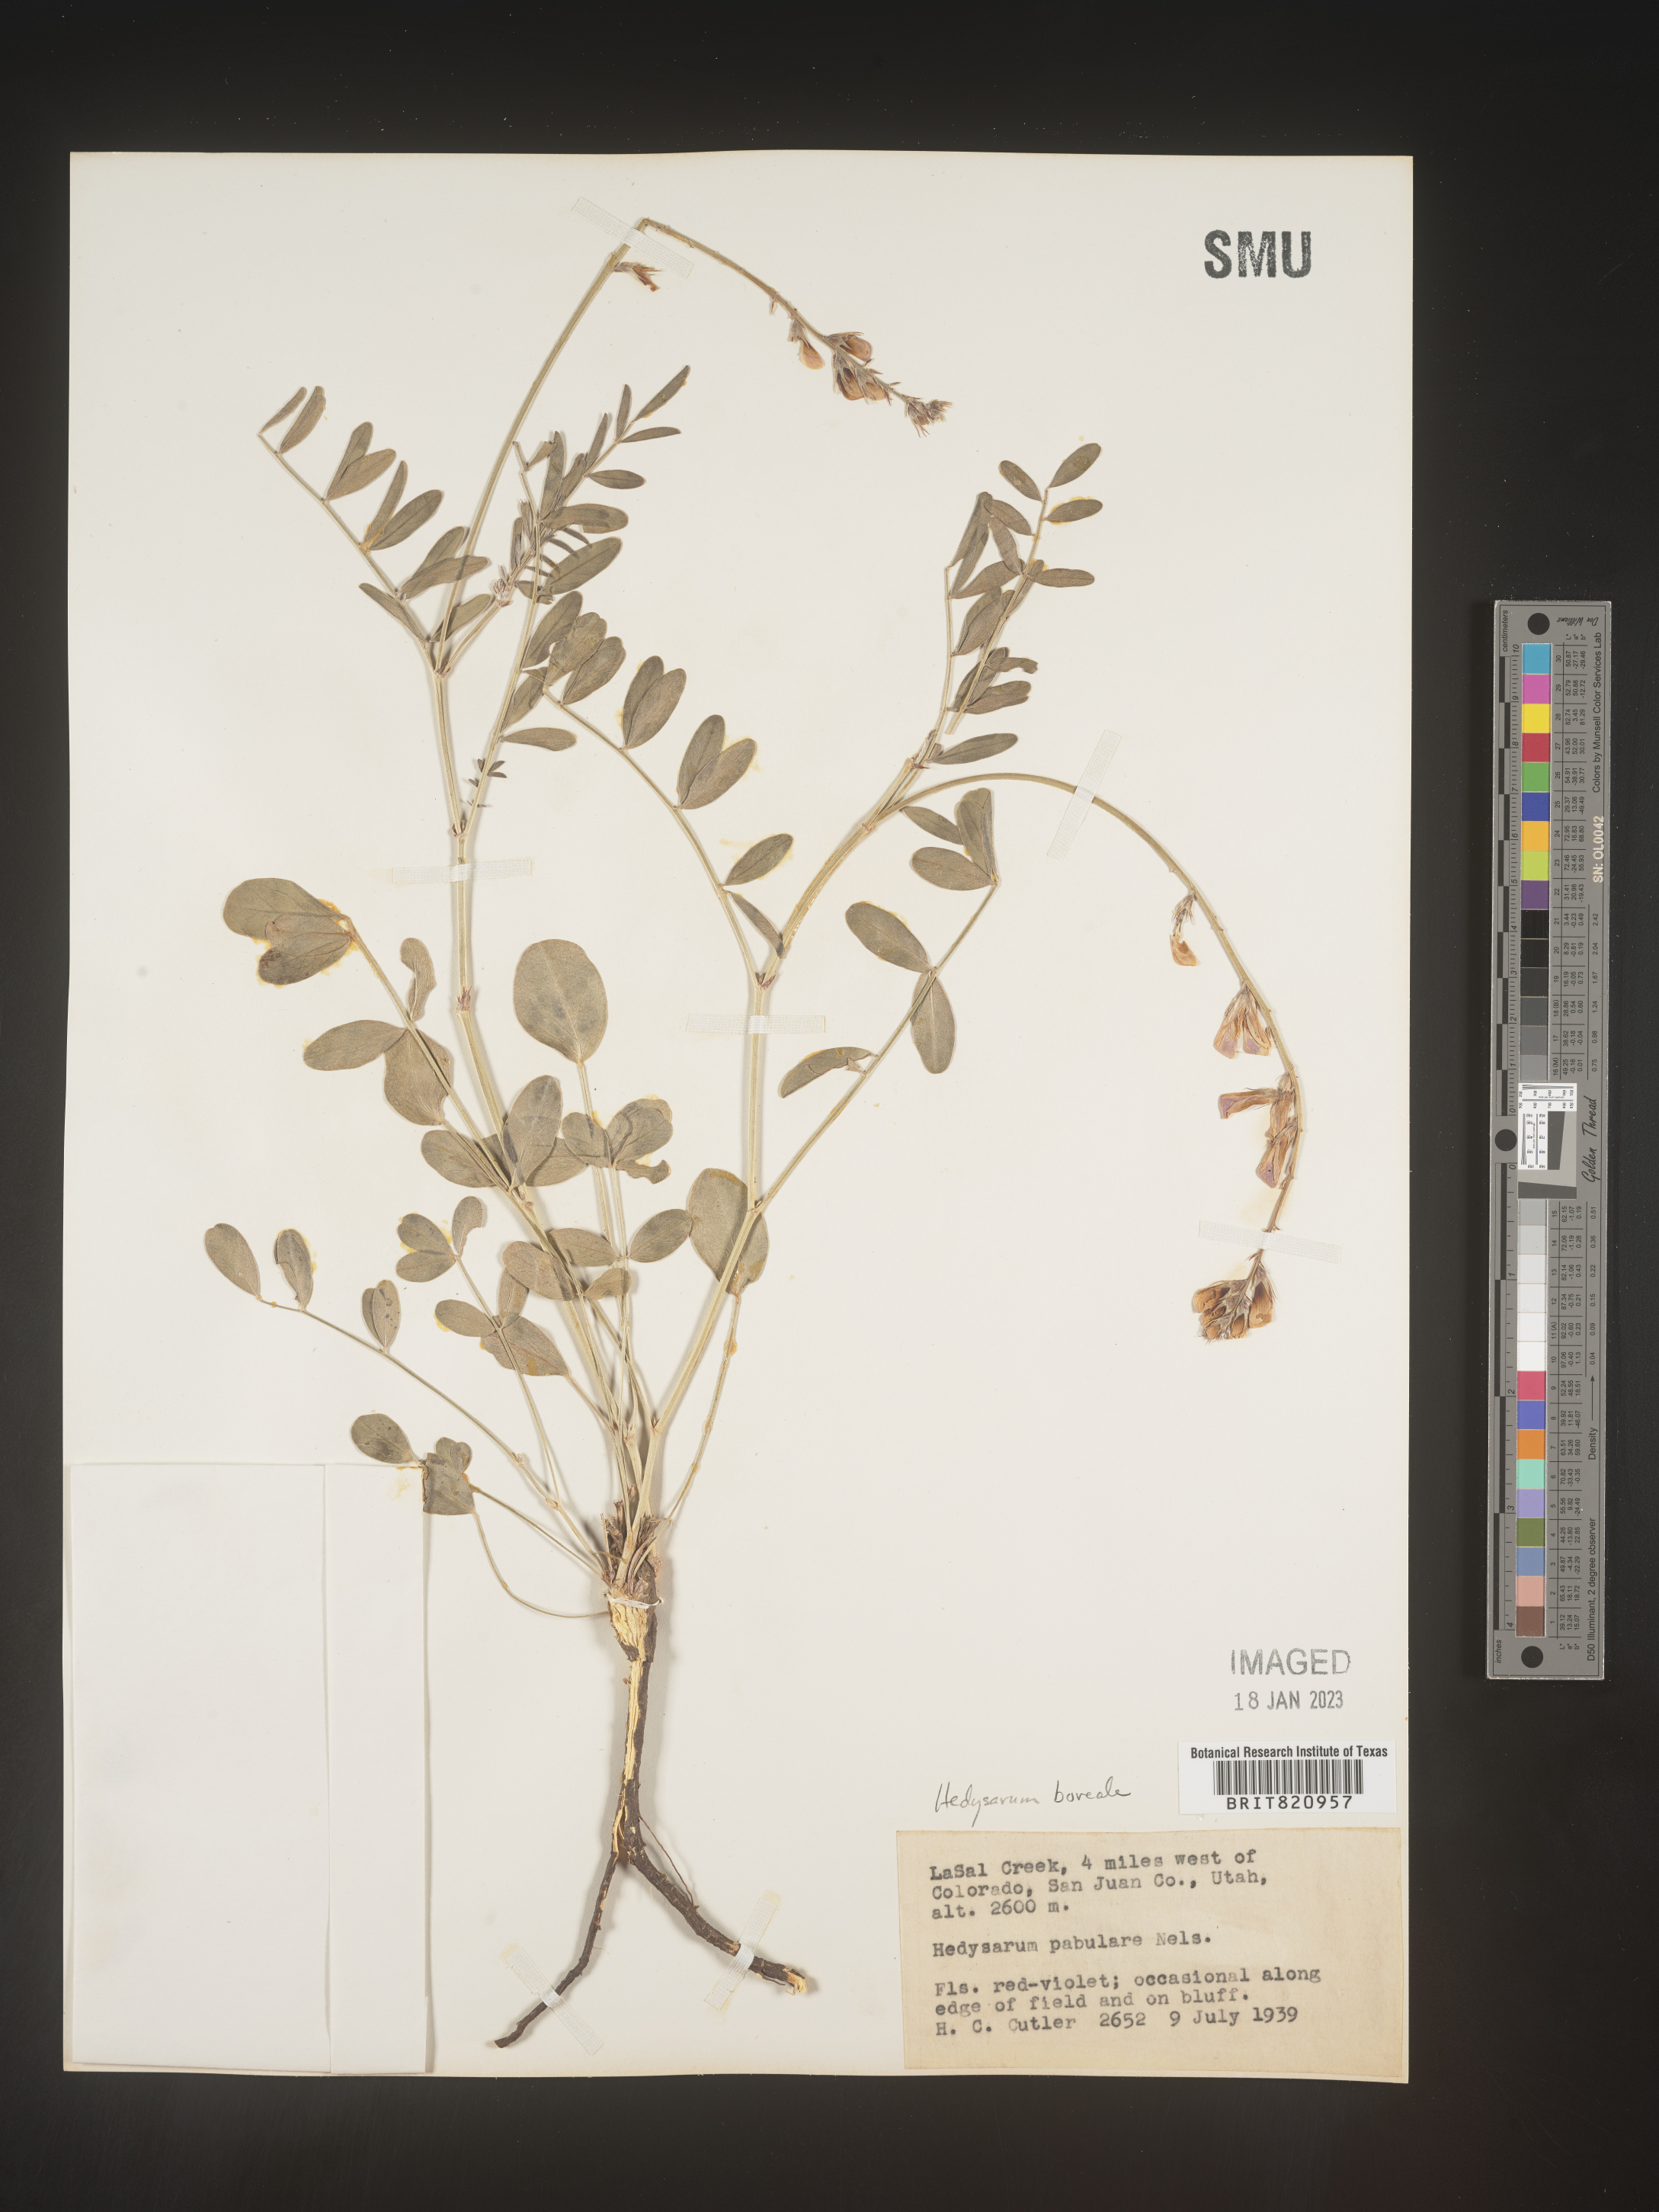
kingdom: Plantae
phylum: Tracheophyta
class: Magnoliopsida
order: Fabales
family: Fabaceae
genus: Hedysarum
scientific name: Hedysarum boreale
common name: Northern sweet-vetch
